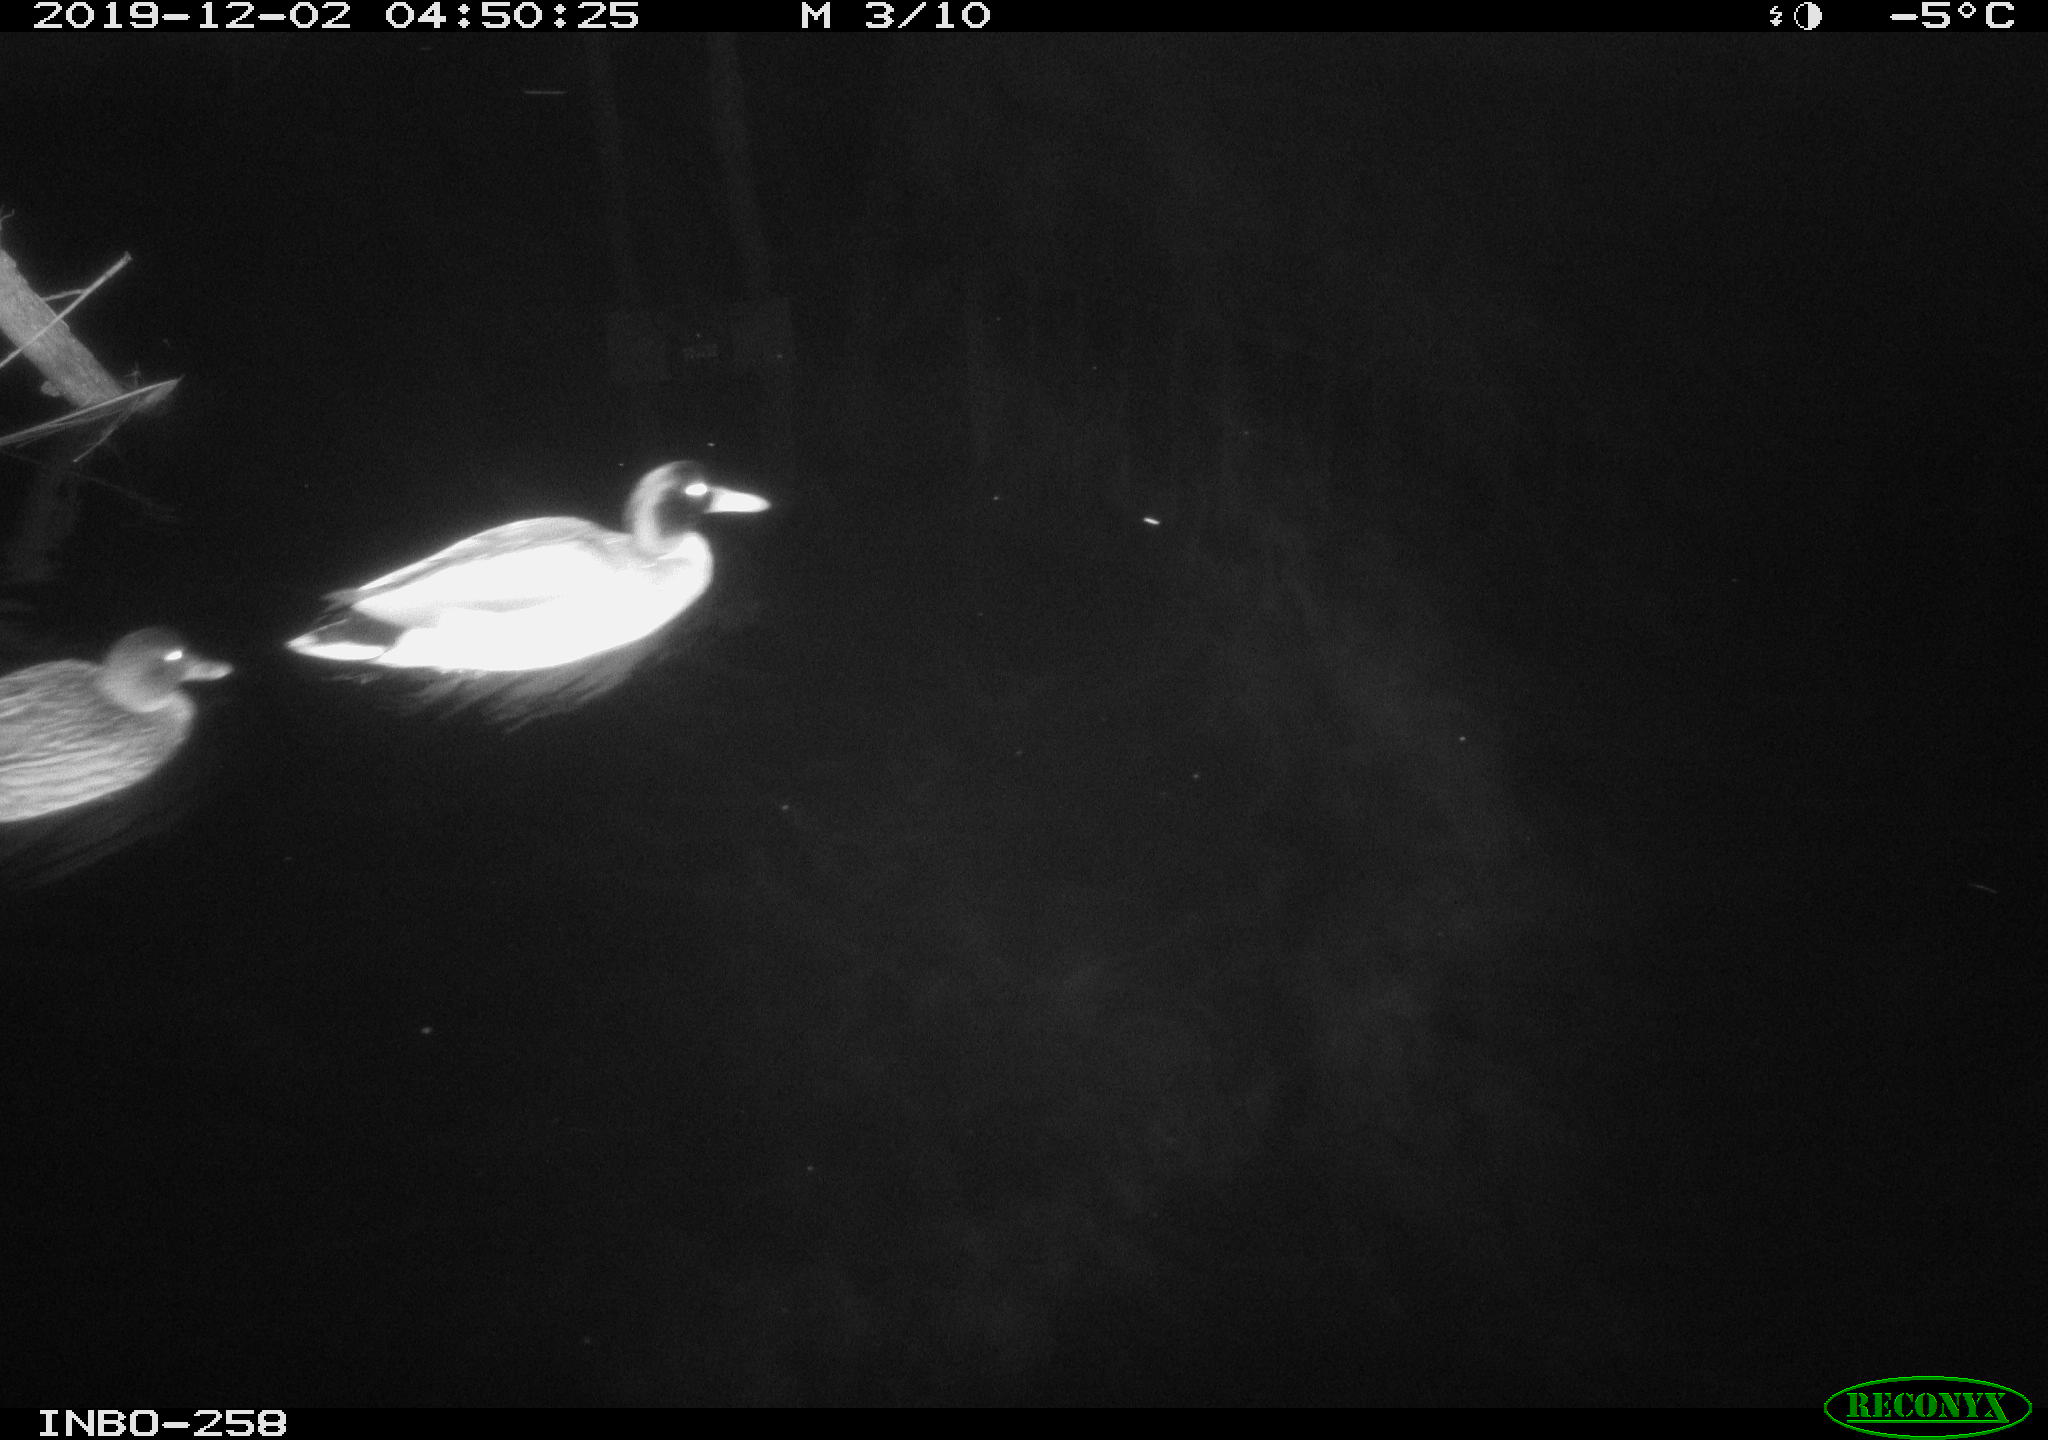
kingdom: Animalia
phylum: Chordata
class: Aves
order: Anseriformes
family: Anatidae
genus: Anas
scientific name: Anas platyrhynchos
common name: Mallard
